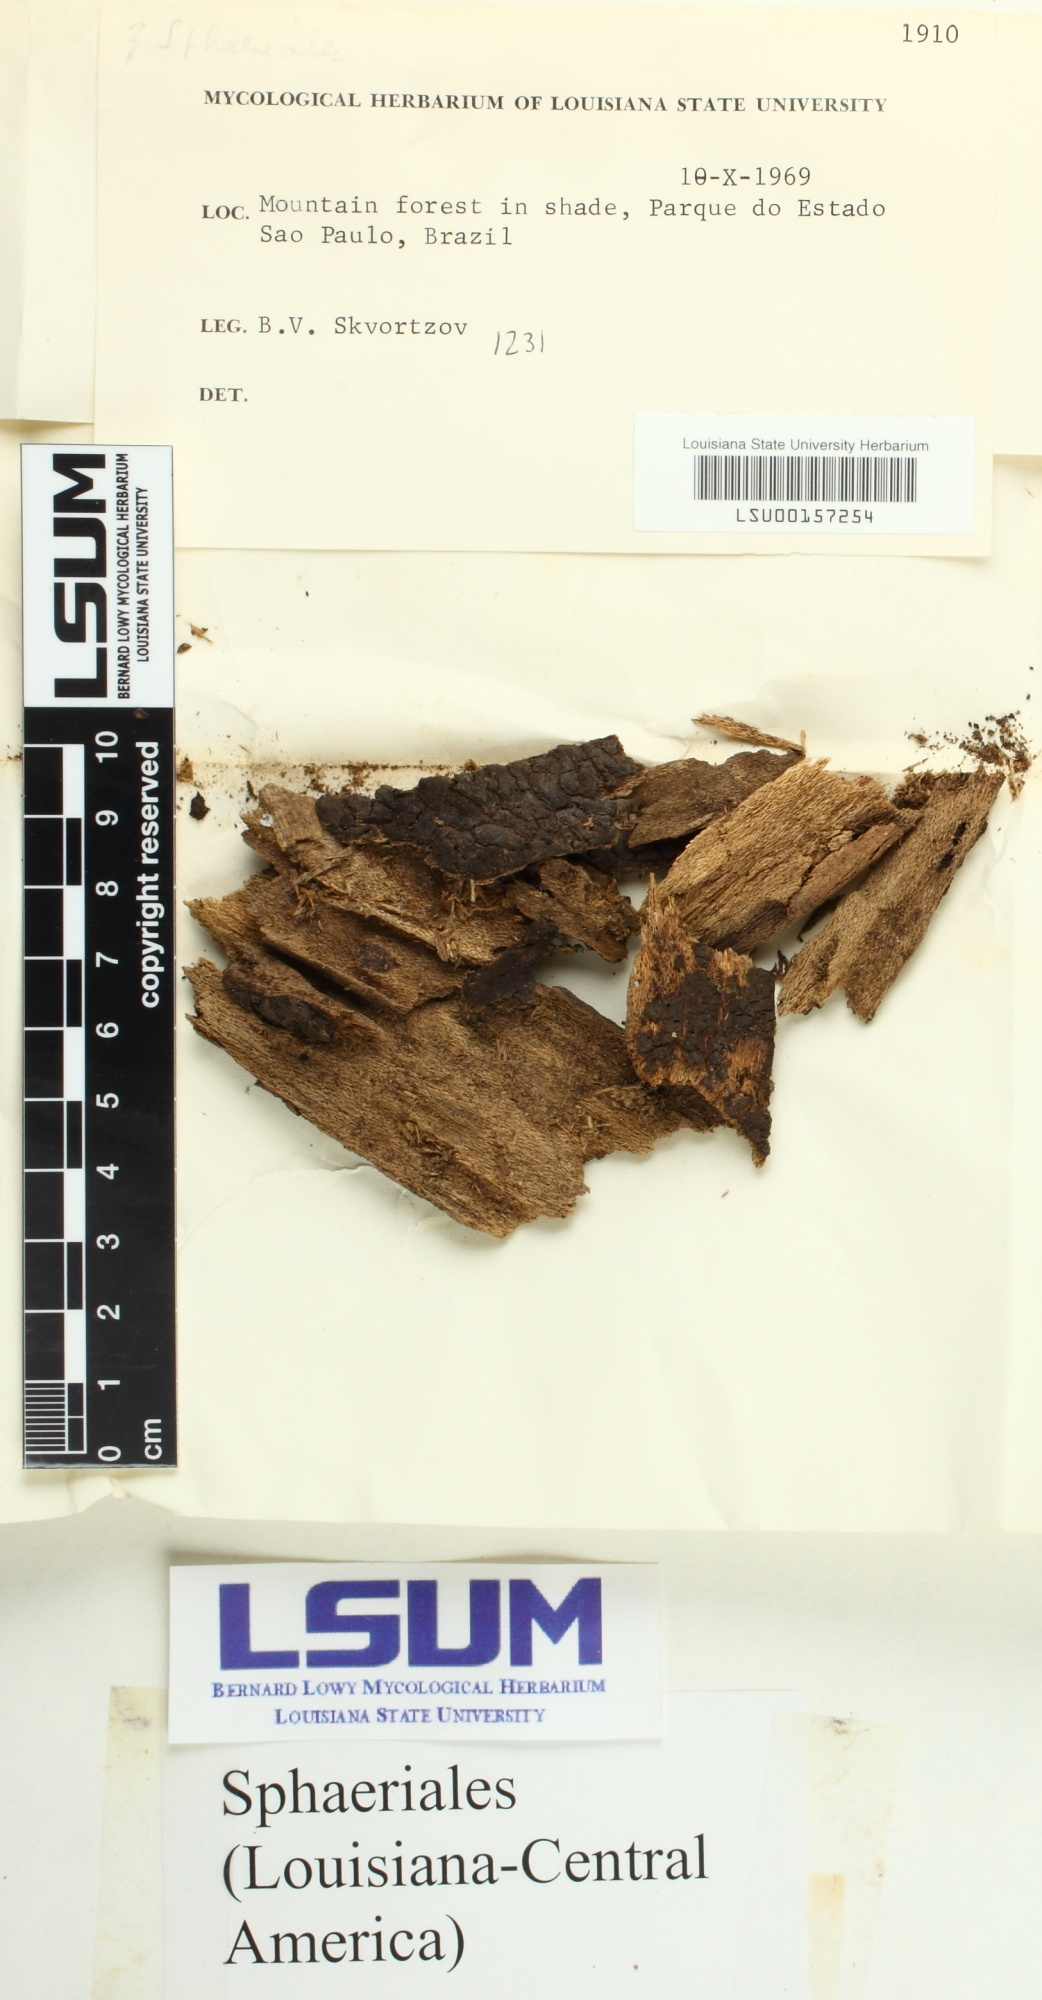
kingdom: Fungi
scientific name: Fungi
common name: Fungi
